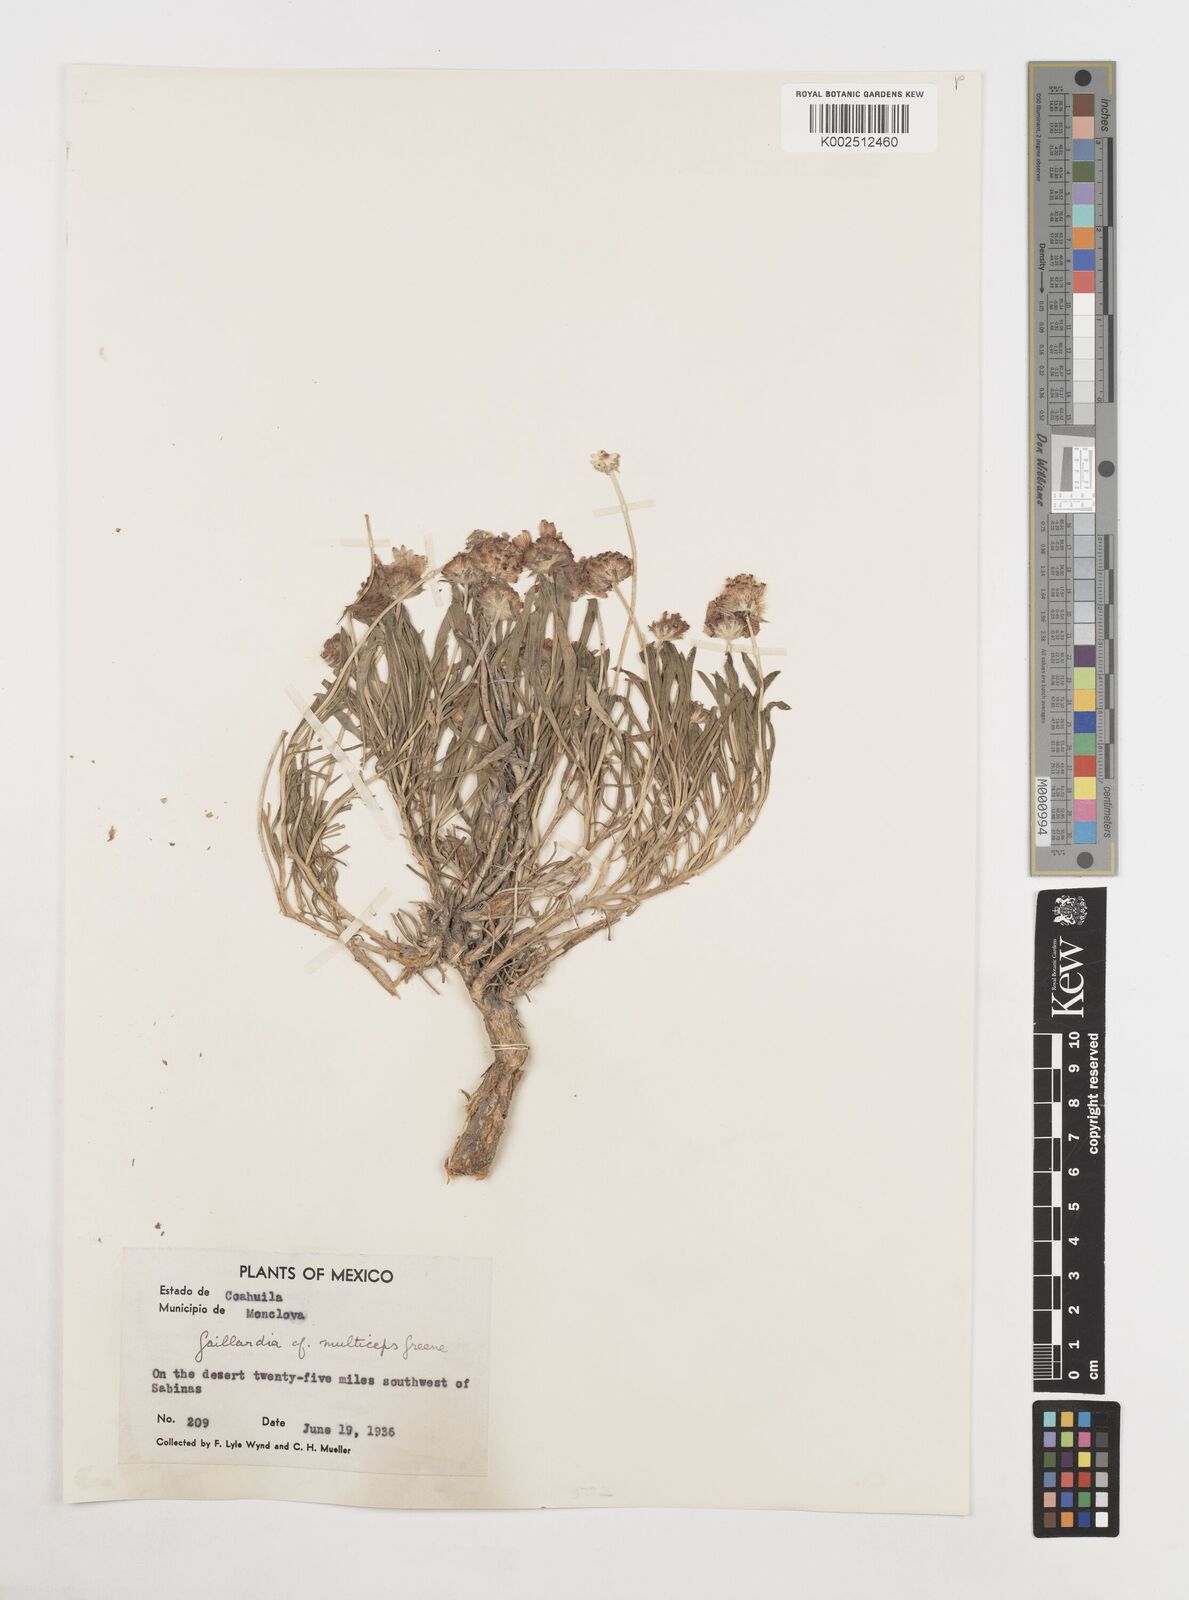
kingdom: Plantae
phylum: Tracheophyta
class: Magnoliopsida
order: Asterales
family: Asteraceae
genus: Gaillardia
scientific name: Gaillardia multiceps
